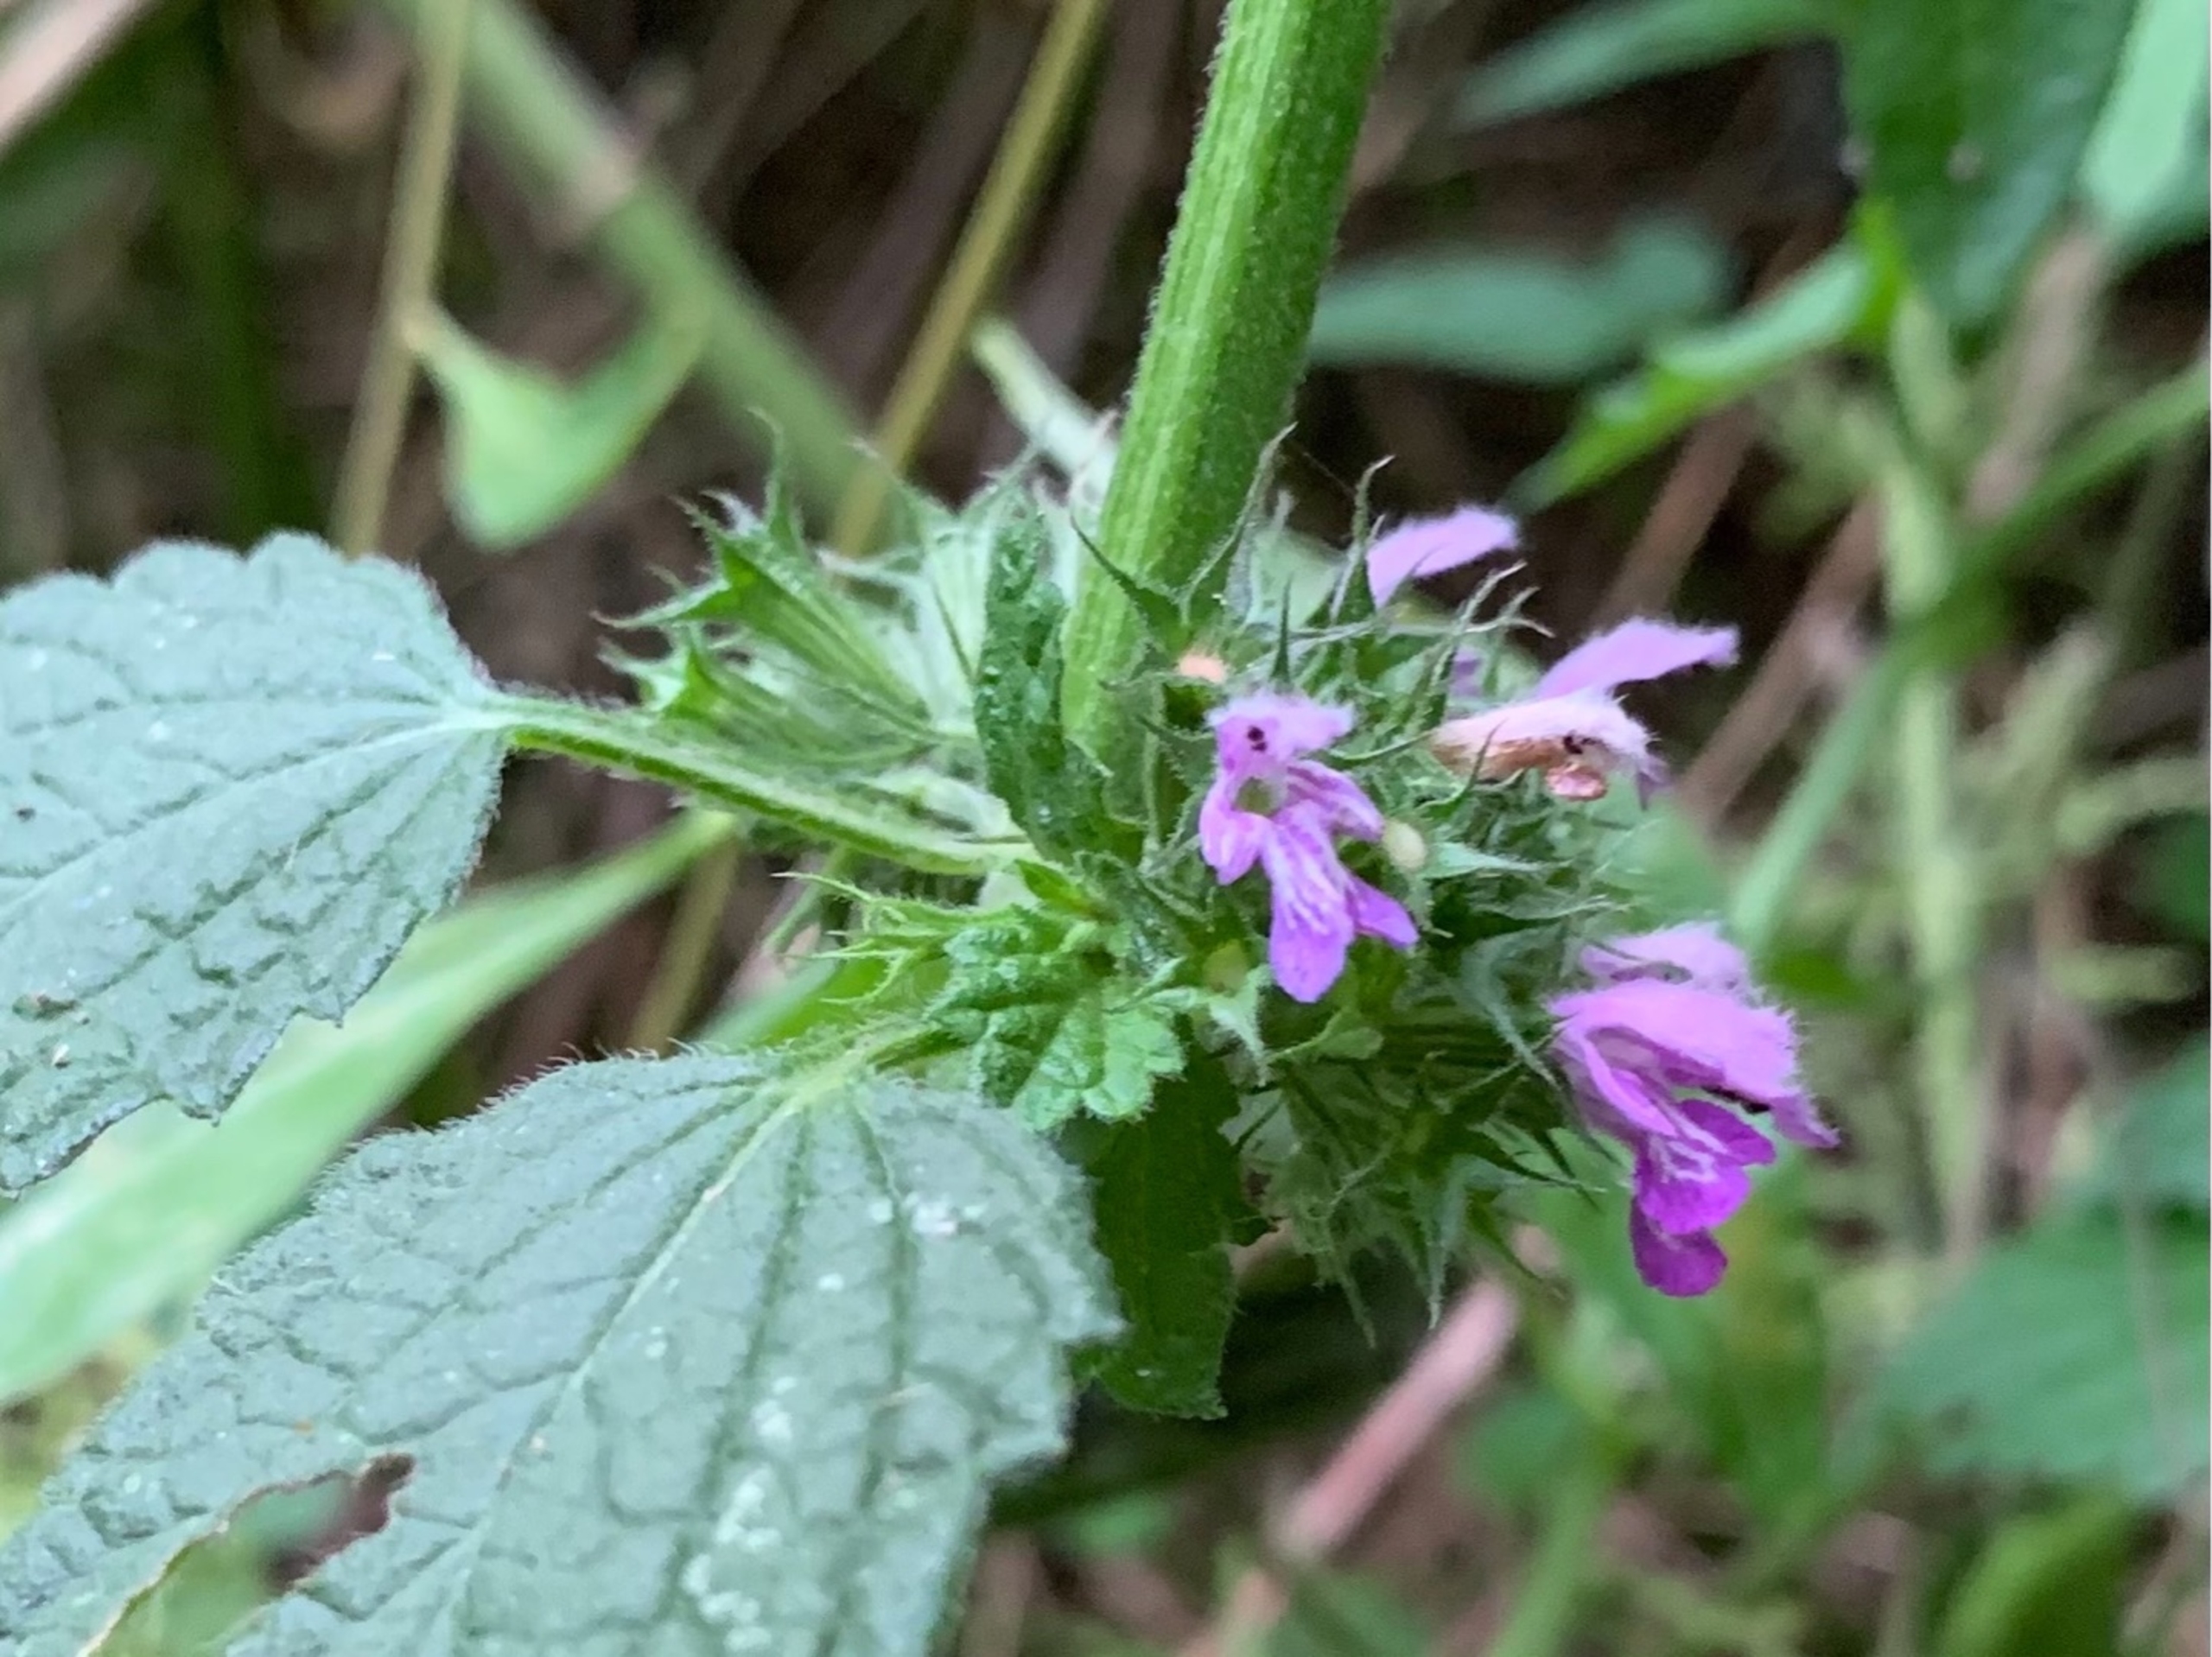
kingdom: Plantae
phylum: Tracheophyta
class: Magnoliopsida
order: Lamiales
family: Lamiaceae
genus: Ballota
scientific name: Ballota nigra
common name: Tandbæger
